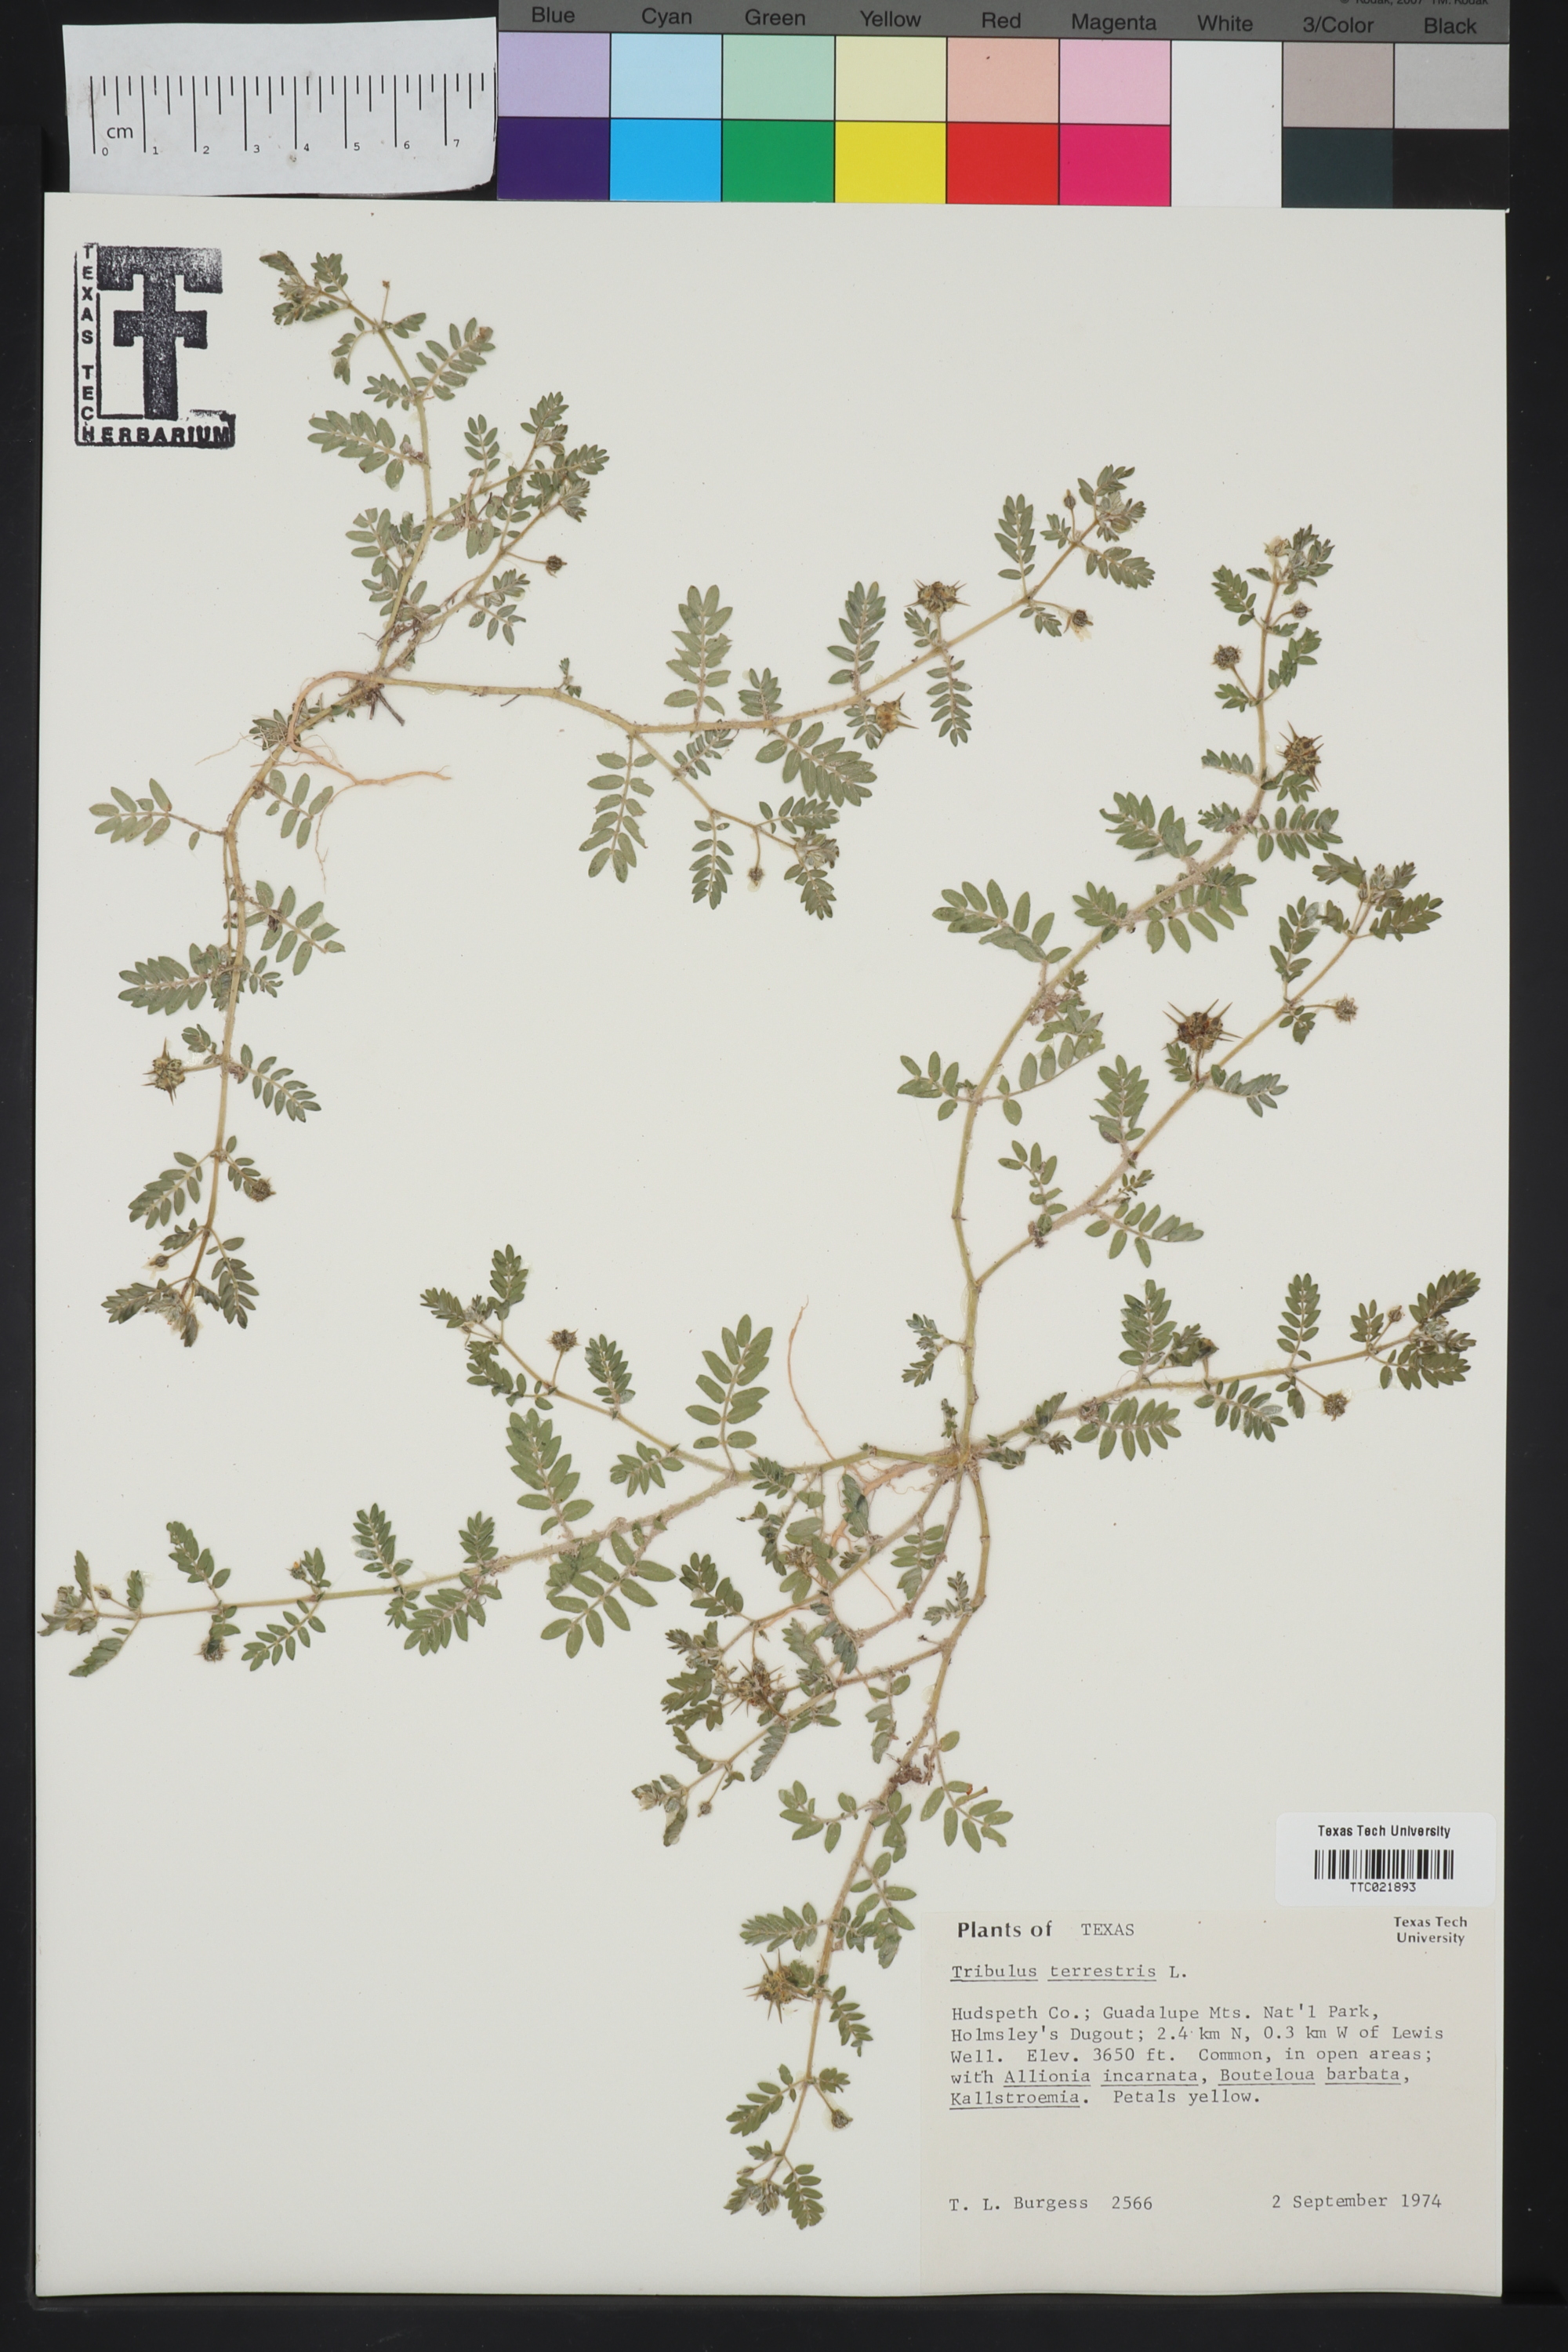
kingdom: Plantae
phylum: Tracheophyta
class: Magnoliopsida
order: Zygophyllales
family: Zygophyllaceae
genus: Tribulus
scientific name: Tribulus terrestris
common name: Puncturevine
